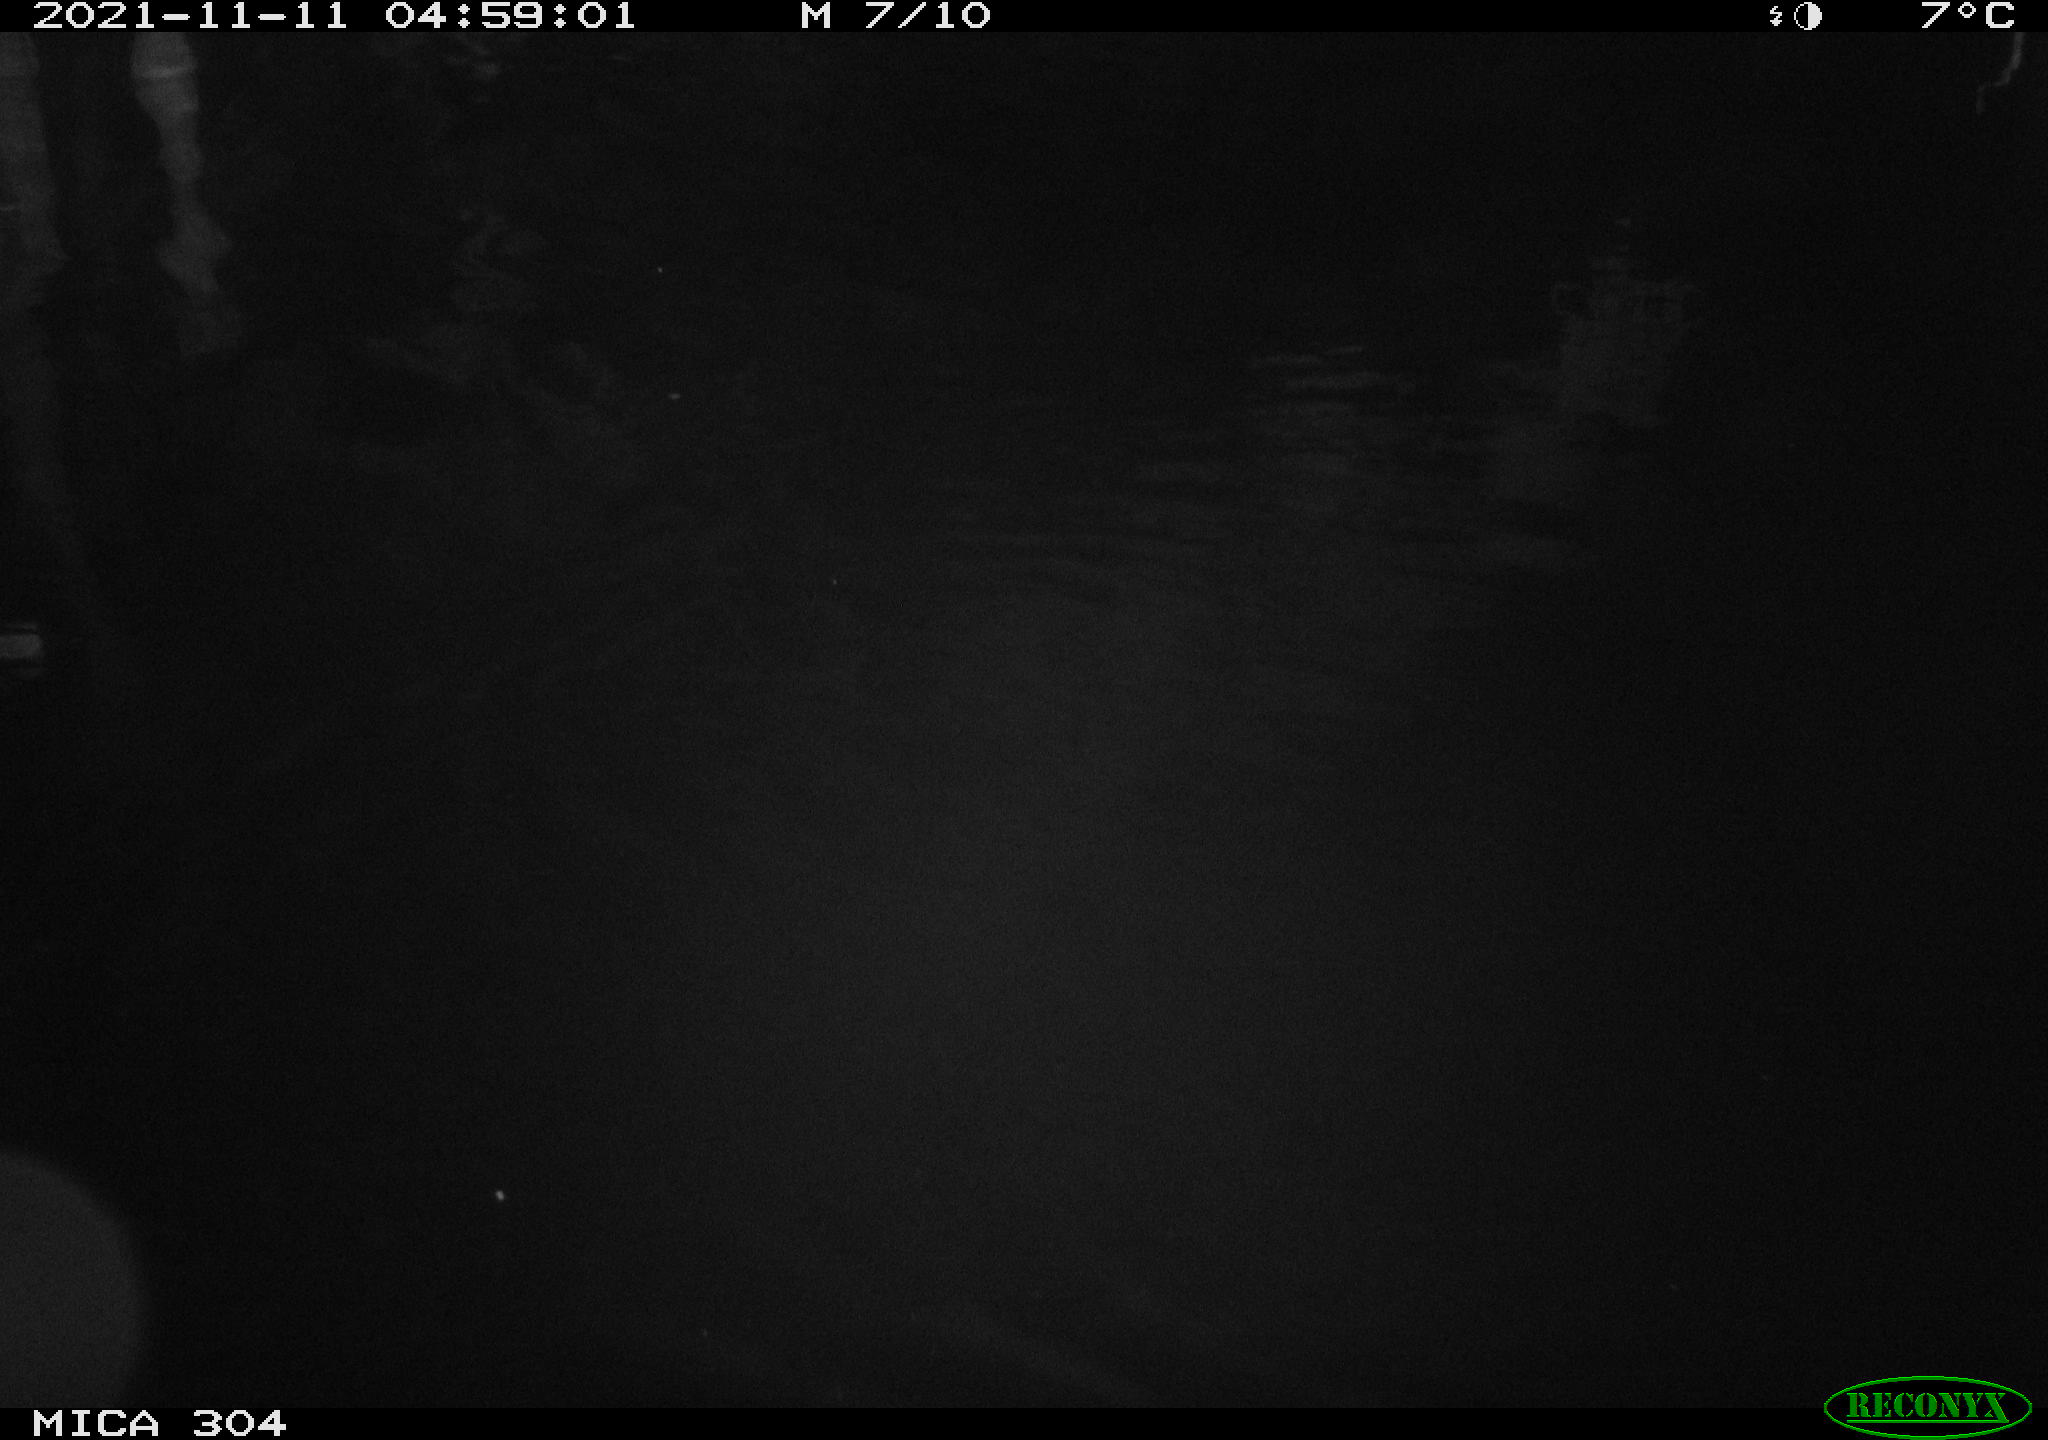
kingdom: Animalia
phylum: Chordata
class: Mammalia
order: Rodentia
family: Muridae
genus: Rattus
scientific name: Rattus norvegicus
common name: Brown rat
